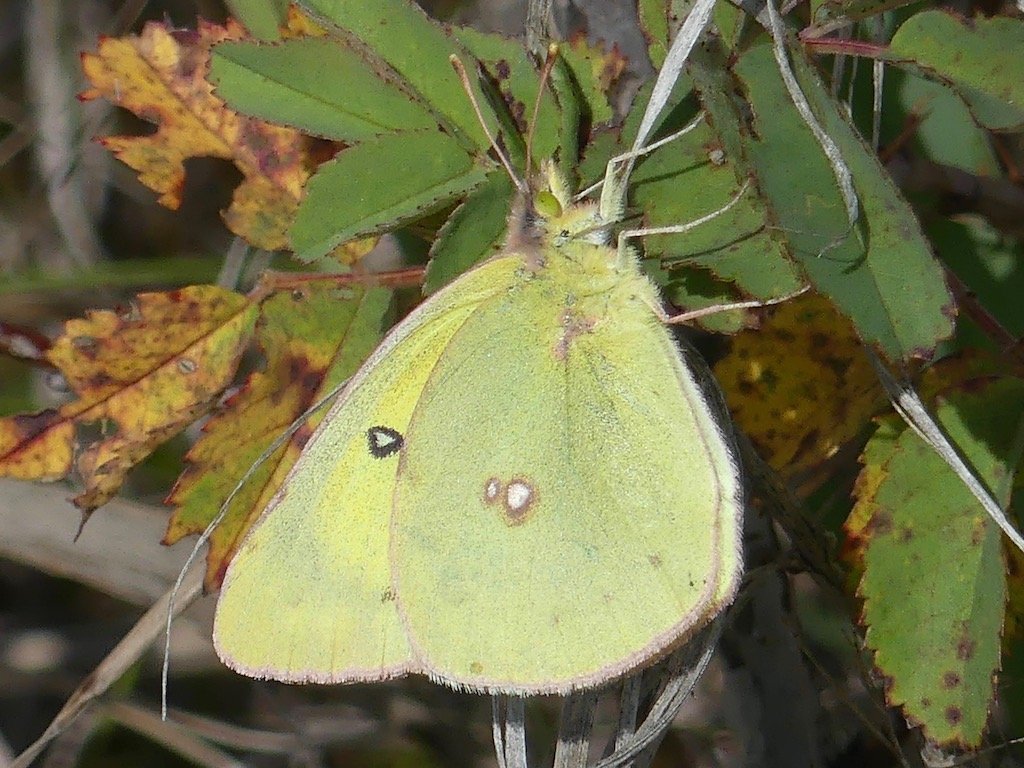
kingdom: Animalia
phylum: Arthropoda
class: Insecta
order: Lepidoptera
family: Pieridae
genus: Colias
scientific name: Colias philodice
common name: Clouded Sulphur
